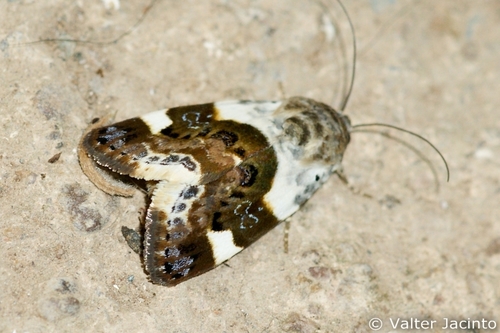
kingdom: Animalia
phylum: Arthropoda
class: Insecta
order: Lepidoptera
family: Noctuidae
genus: Acontia
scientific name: Acontia lucida
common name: Pale shoulder
